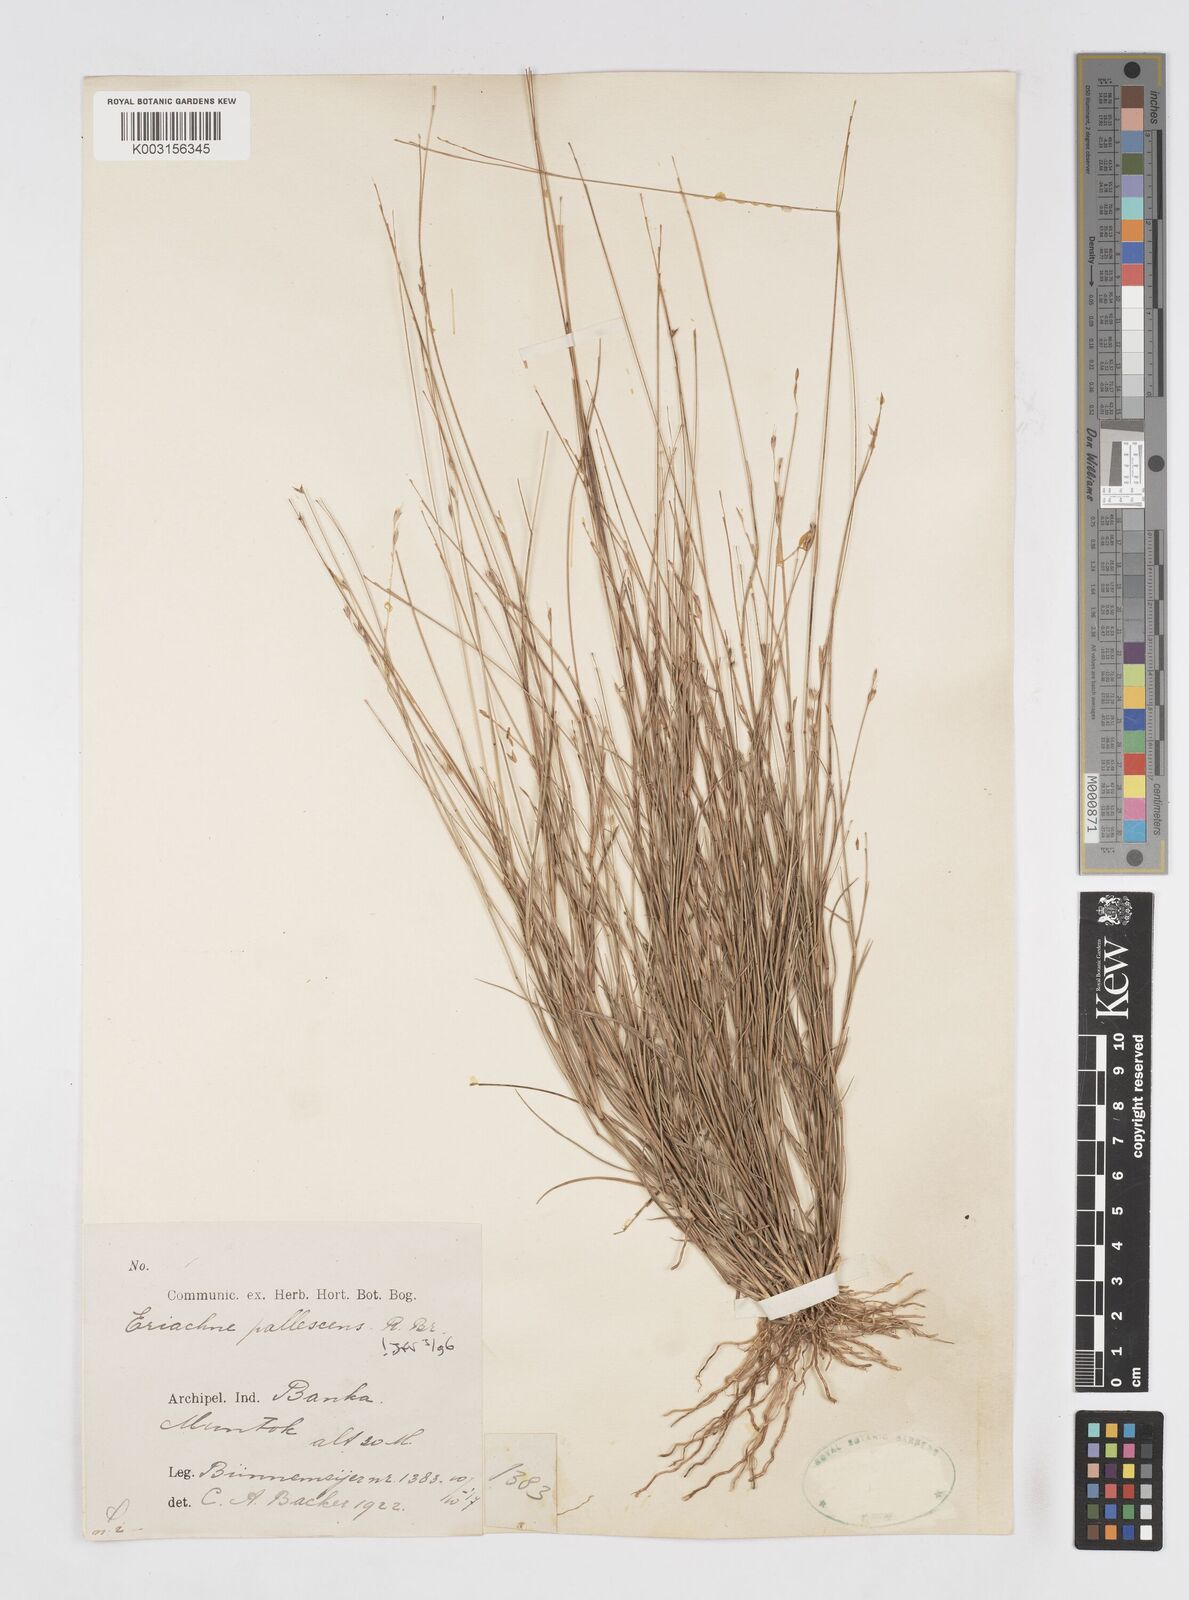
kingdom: Plantae
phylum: Tracheophyta
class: Liliopsida
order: Poales
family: Poaceae
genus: Eriachne
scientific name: Eriachne pallescens
